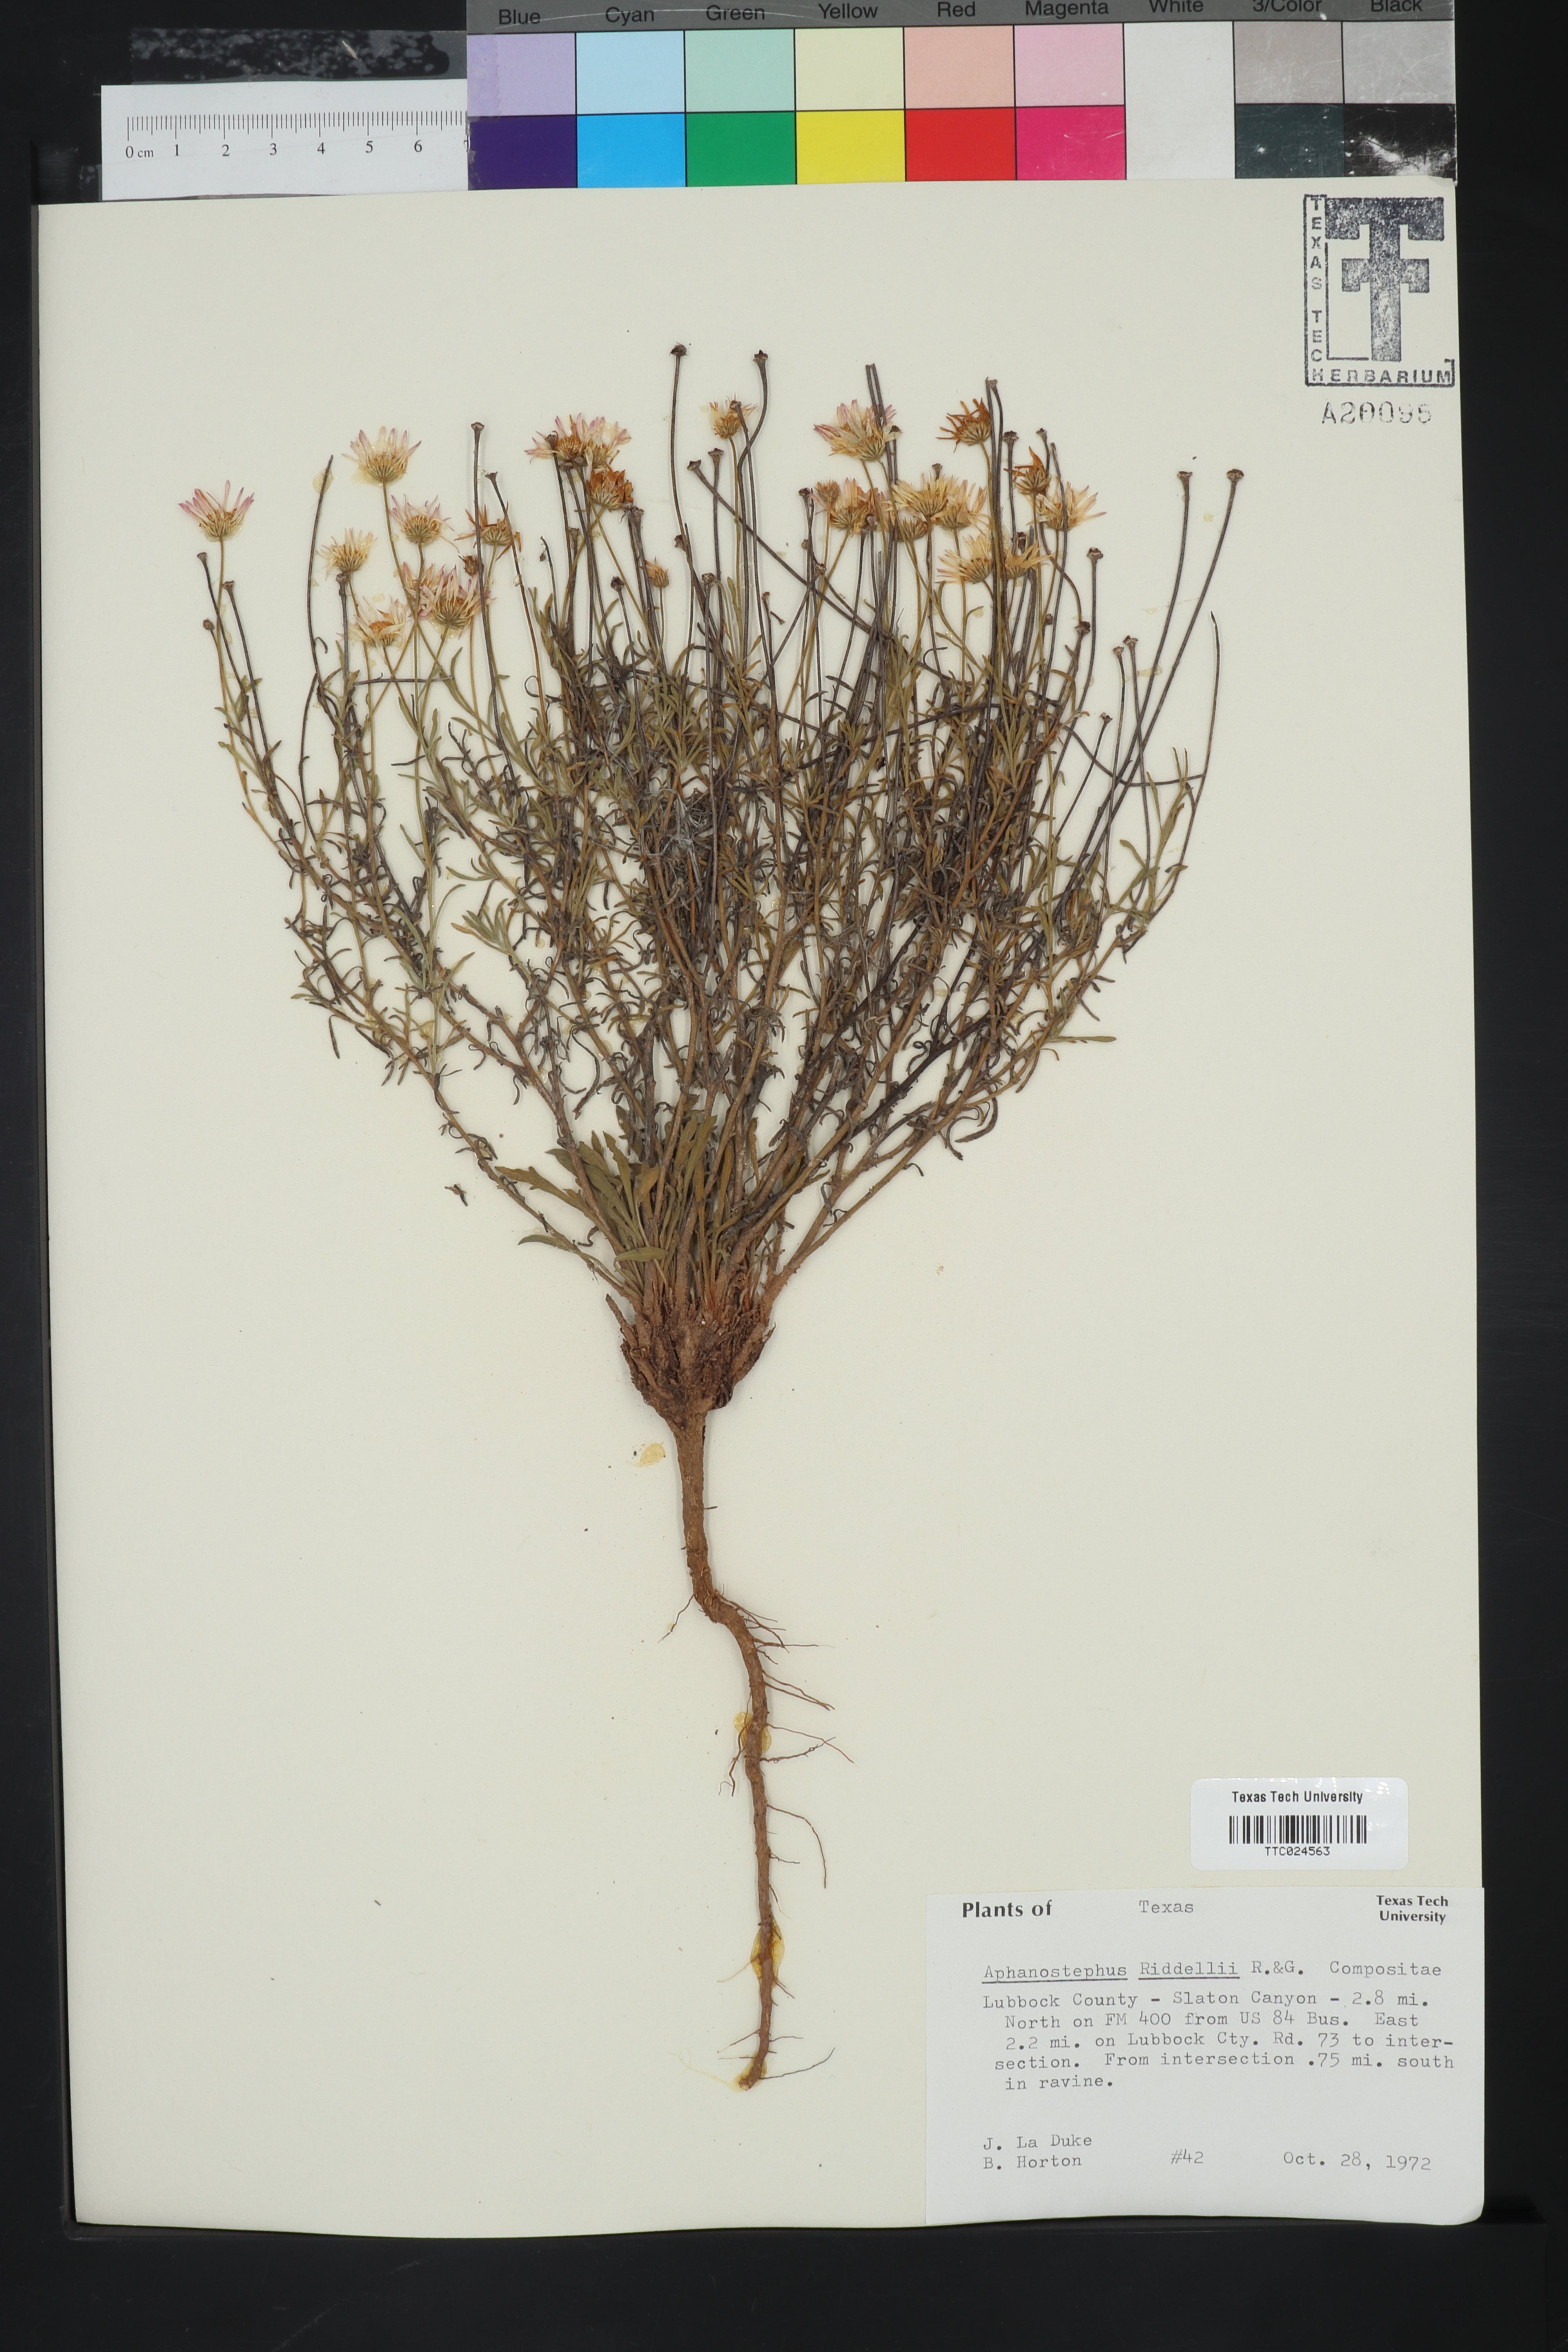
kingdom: Plantae
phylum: Tracheophyta
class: Magnoliopsida
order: Asterales
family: Asteraceae
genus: Aphanostephus
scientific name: Aphanostephus riddellii
